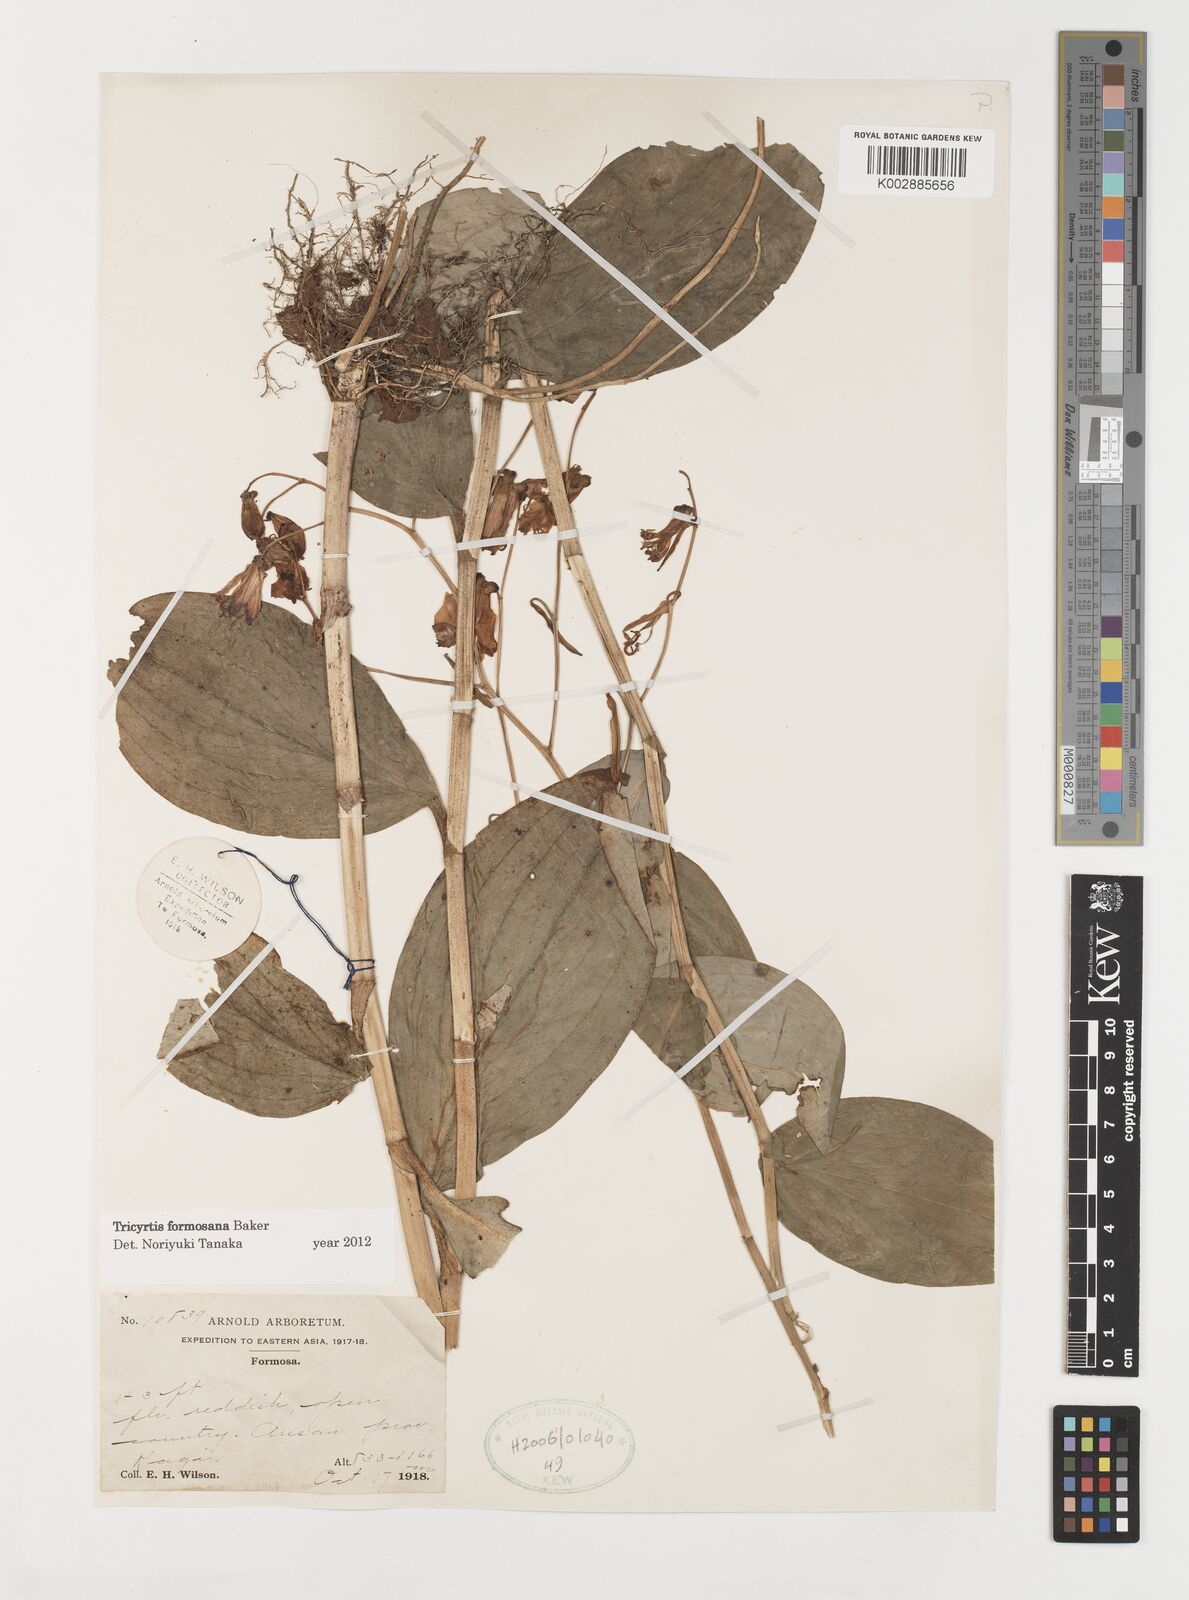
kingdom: Plantae
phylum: Tracheophyta
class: Liliopsida
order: Liliales
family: Liliaceae
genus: Tricyrtis
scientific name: Tricyrtis formosana
